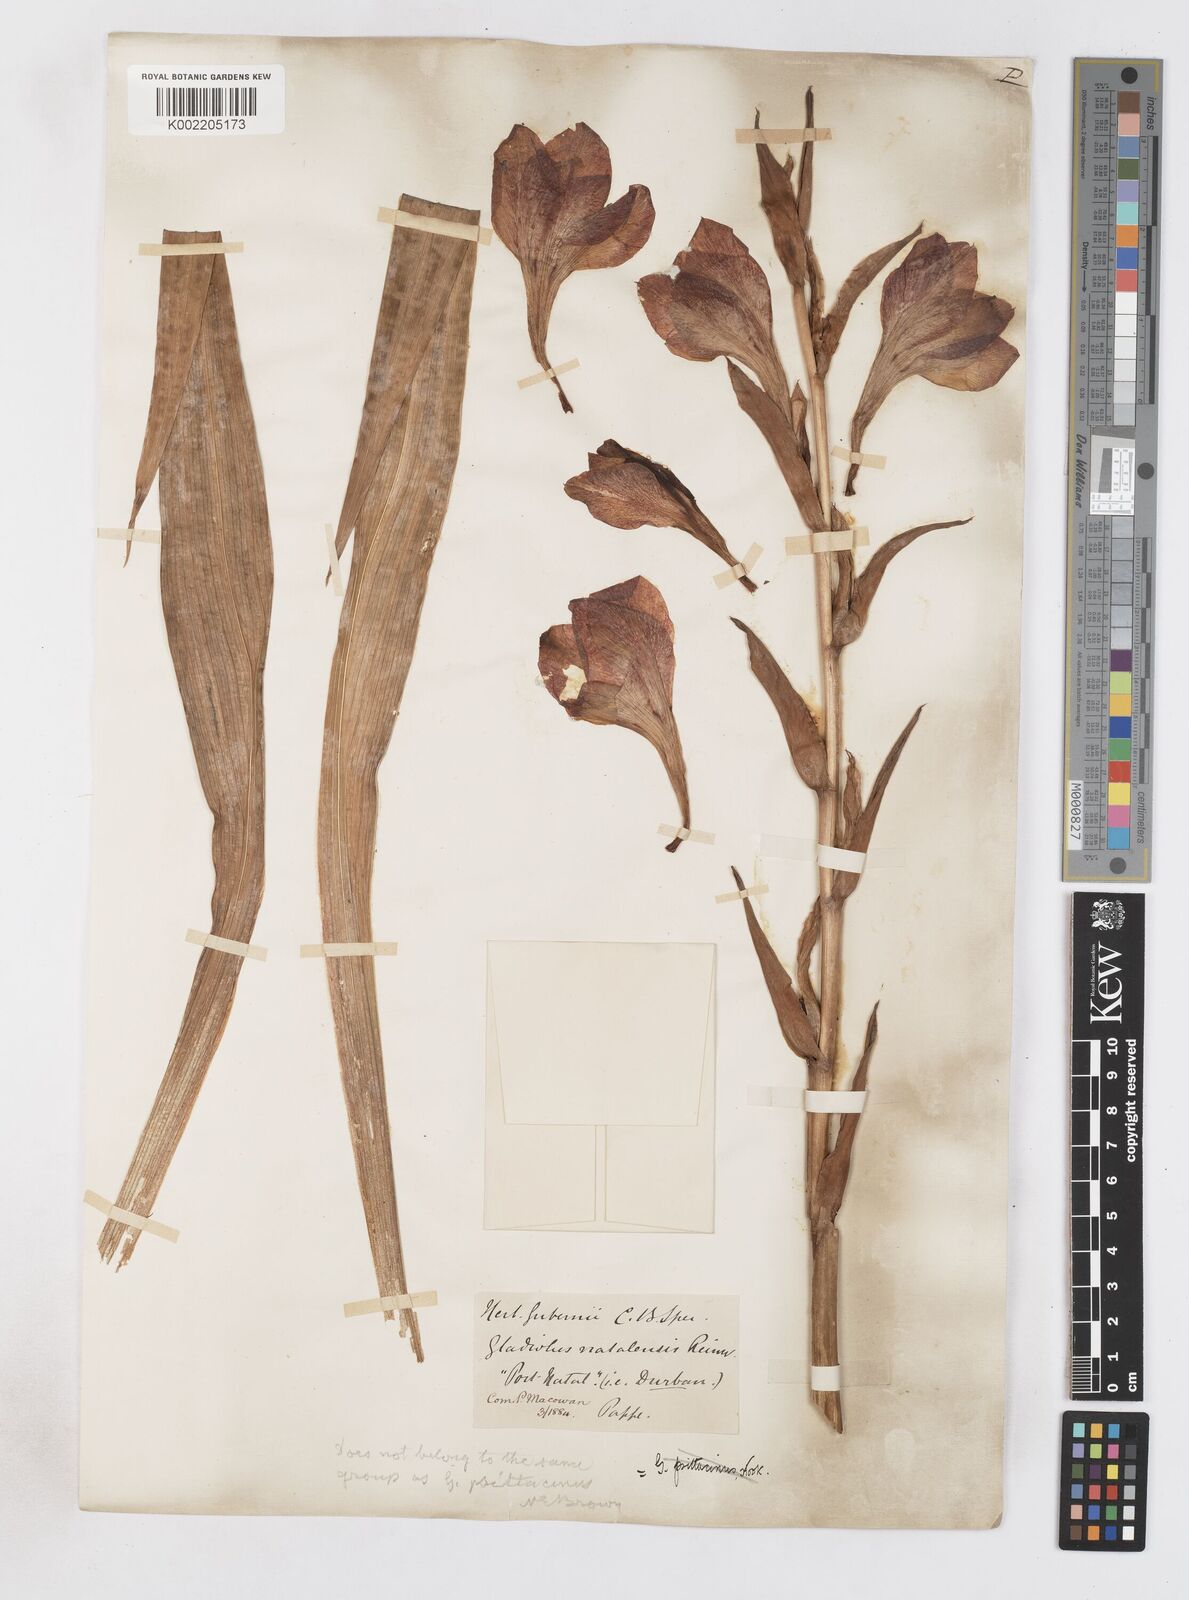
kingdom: Plantae
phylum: Tracheophyta
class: Liliopsida
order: Asparagales
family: Iridaceae
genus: Gladiolus
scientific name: Gladiolus dalenii
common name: Cornflag
